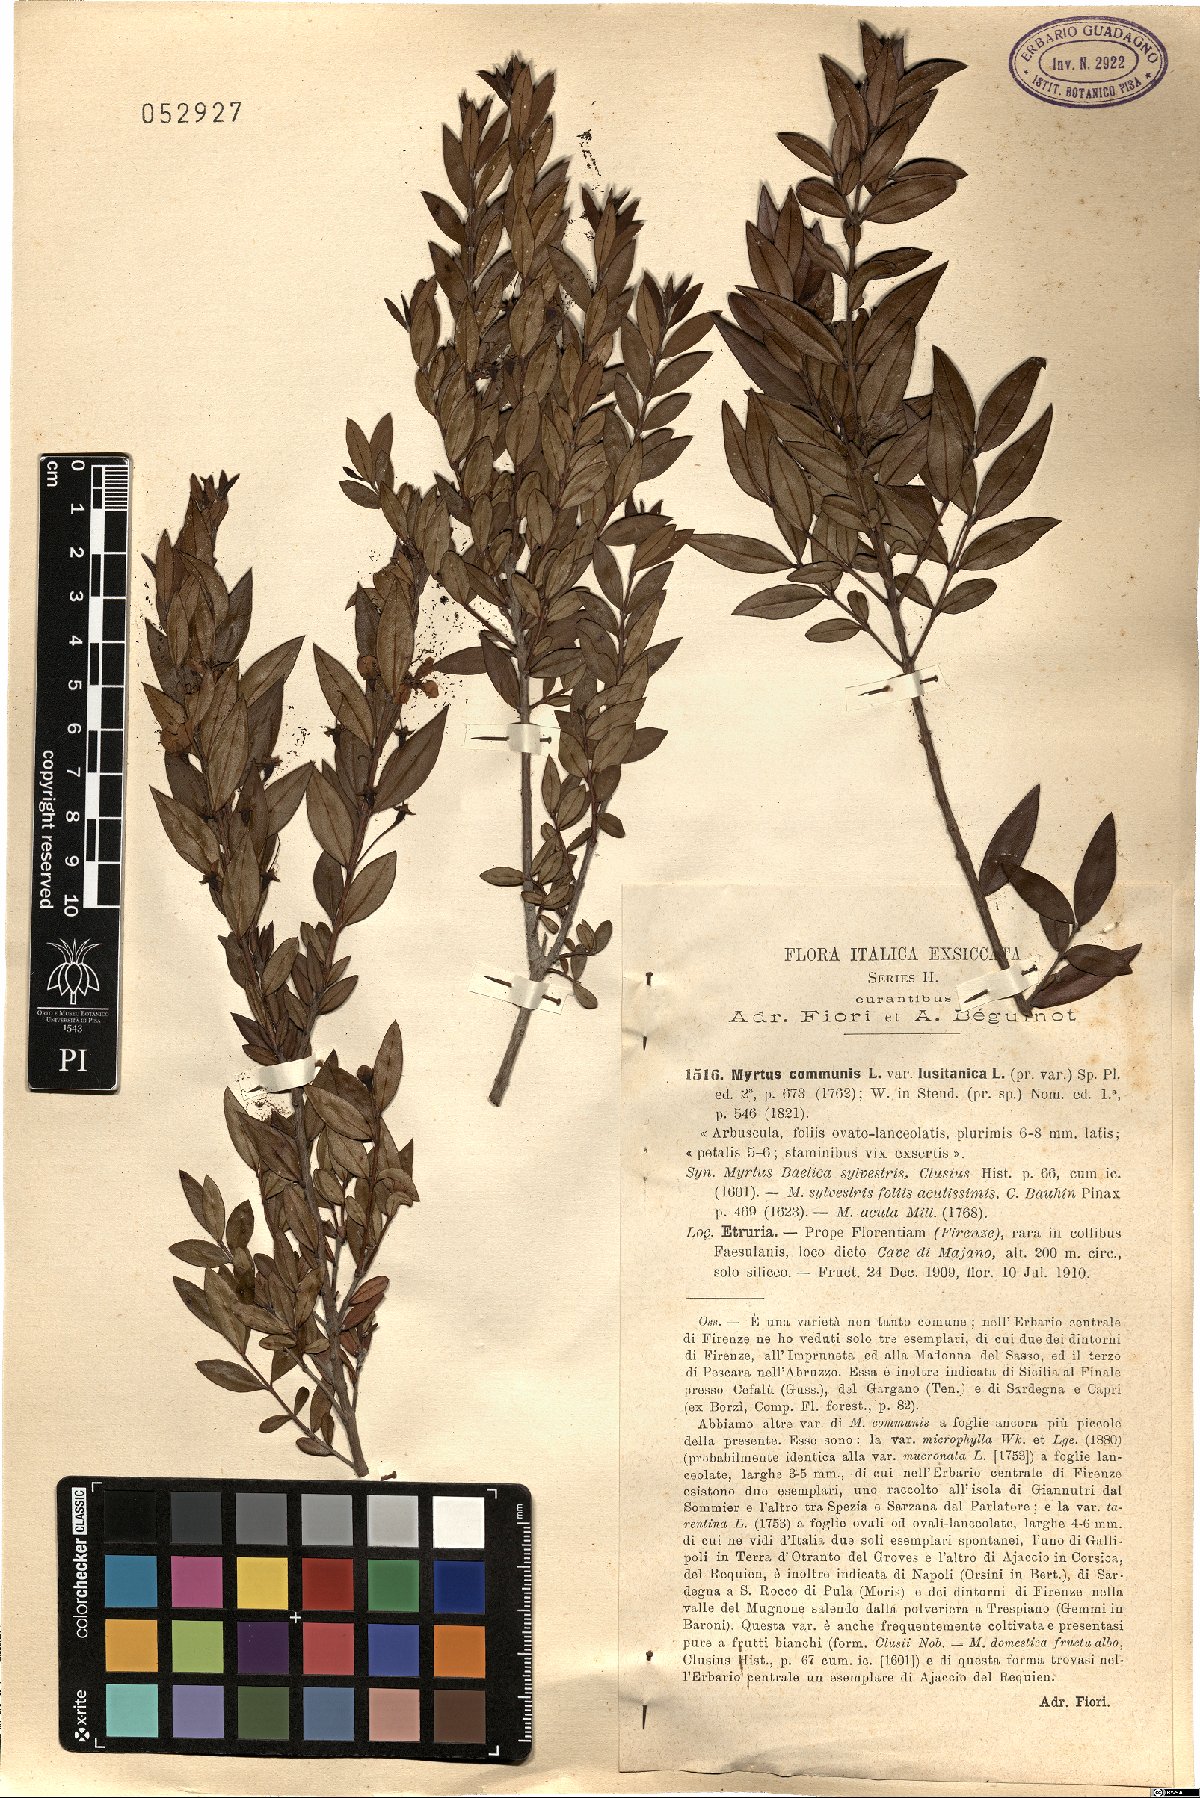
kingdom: Plantae
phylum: Tracheophyta
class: Magnoliopsida
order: Myrtales
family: Myrtaceae
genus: Myrtus
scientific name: Myrtus communis
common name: Myrtle
